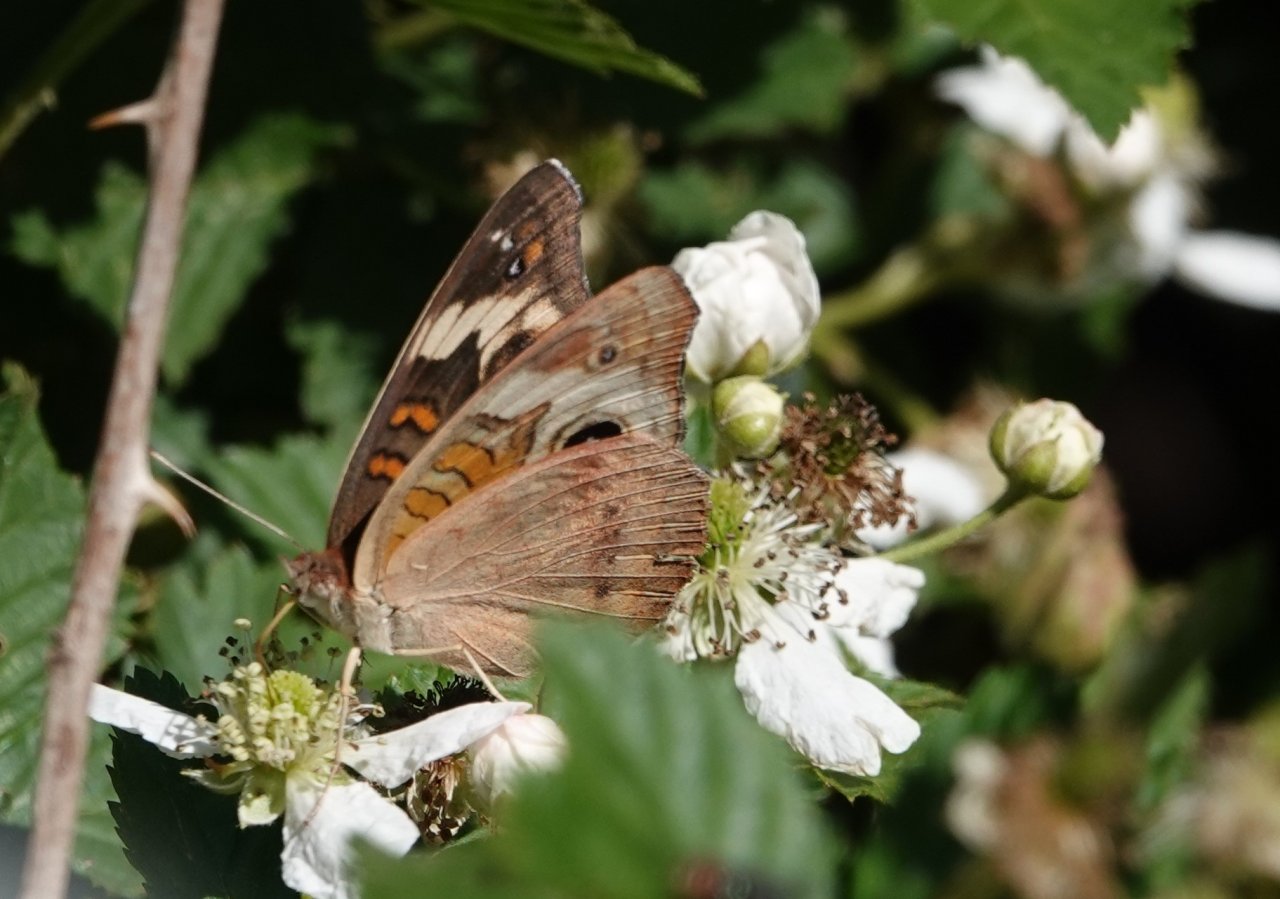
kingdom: Animalia
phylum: Arthropoda
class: Insecta
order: Lepidoptera
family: Nymphalidae
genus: Junonia
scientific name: Junonia coenia
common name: Common Buckeye
